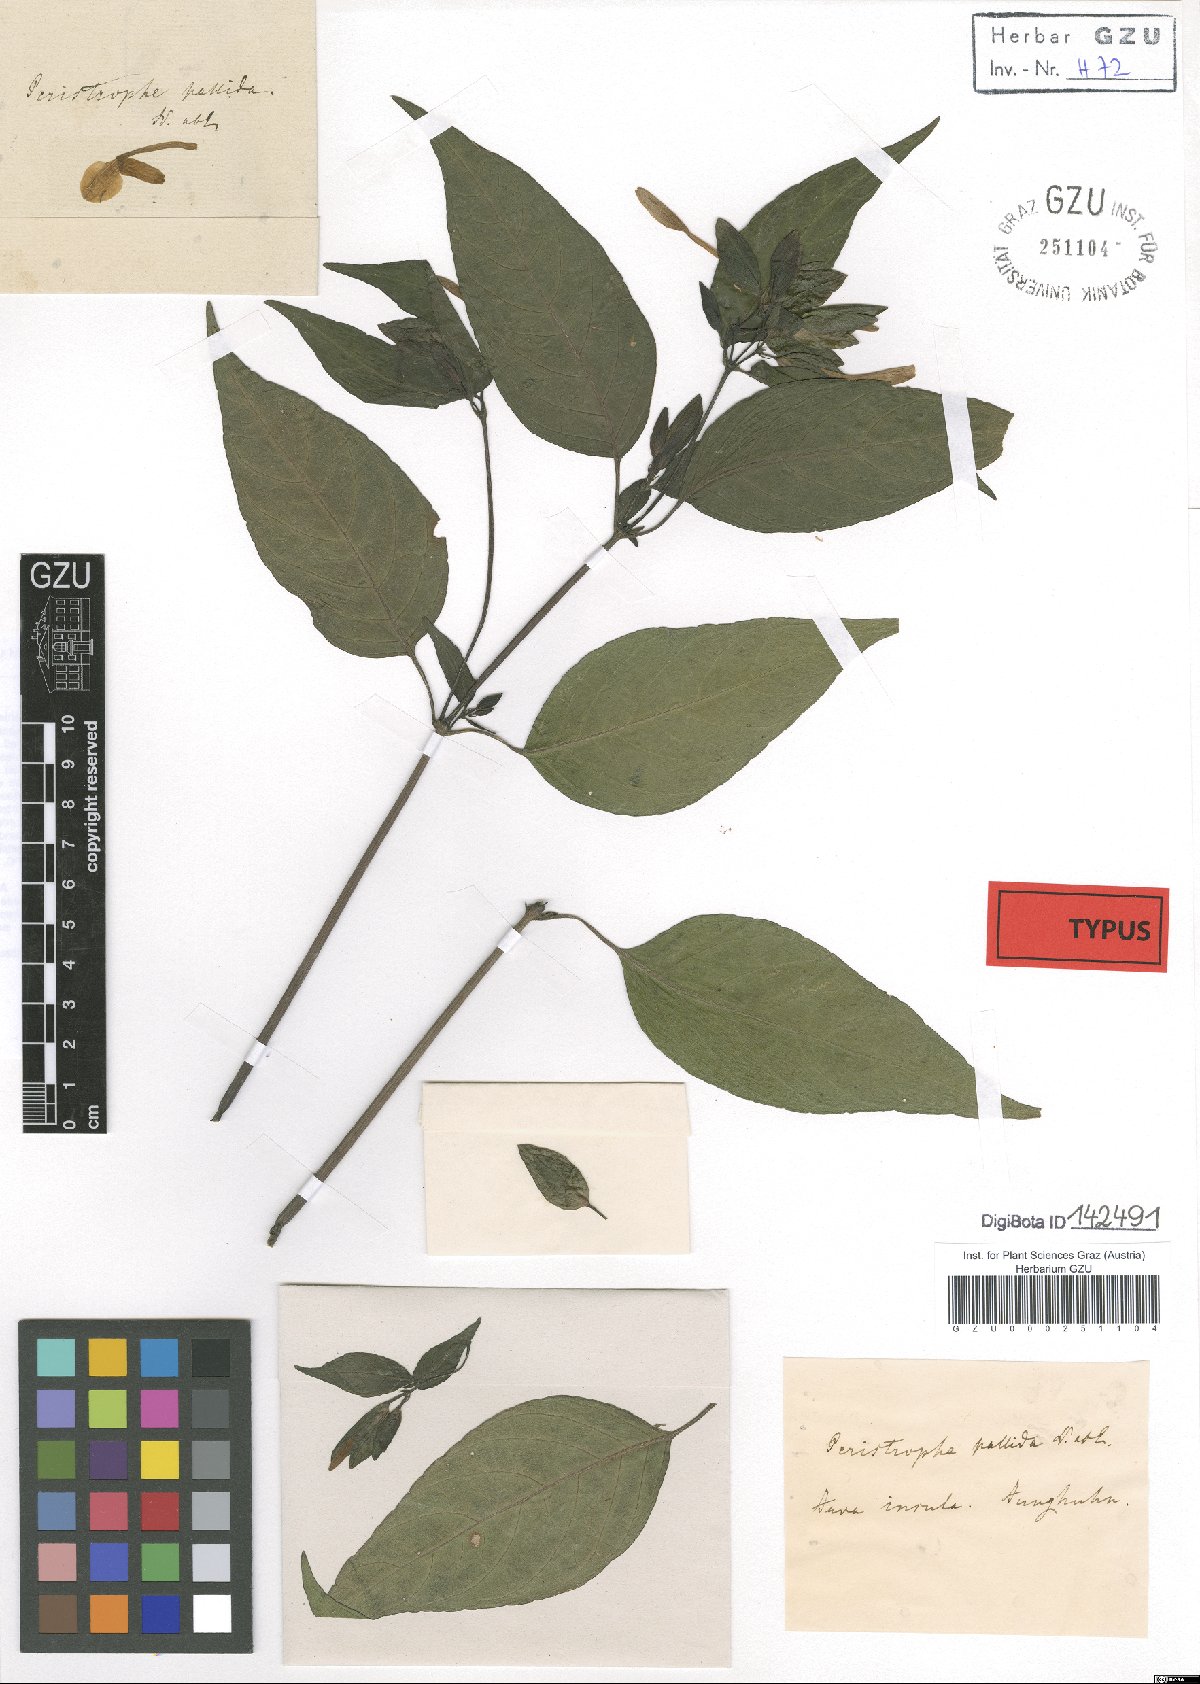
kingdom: Plantae
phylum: Tracheophyta
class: Magnoliopsida
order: Lamiales
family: Acanthaceae
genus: Dicliptera
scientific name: Dicliptera Peristrophe pallida
